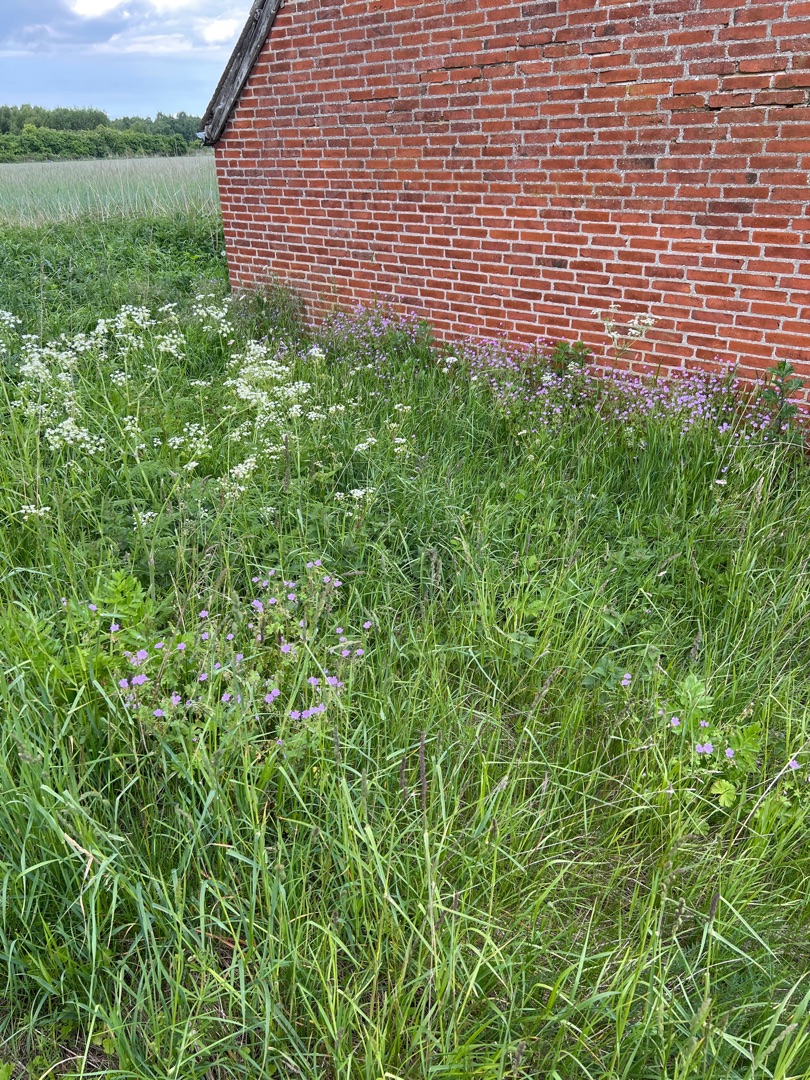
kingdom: Plantae
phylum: Tracheophyta
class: Magnoliopsida
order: Geraniales
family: Geraniaceae
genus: Geranium
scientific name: Geranium pyrenaicum
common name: Pyrenæisk storkenæb
